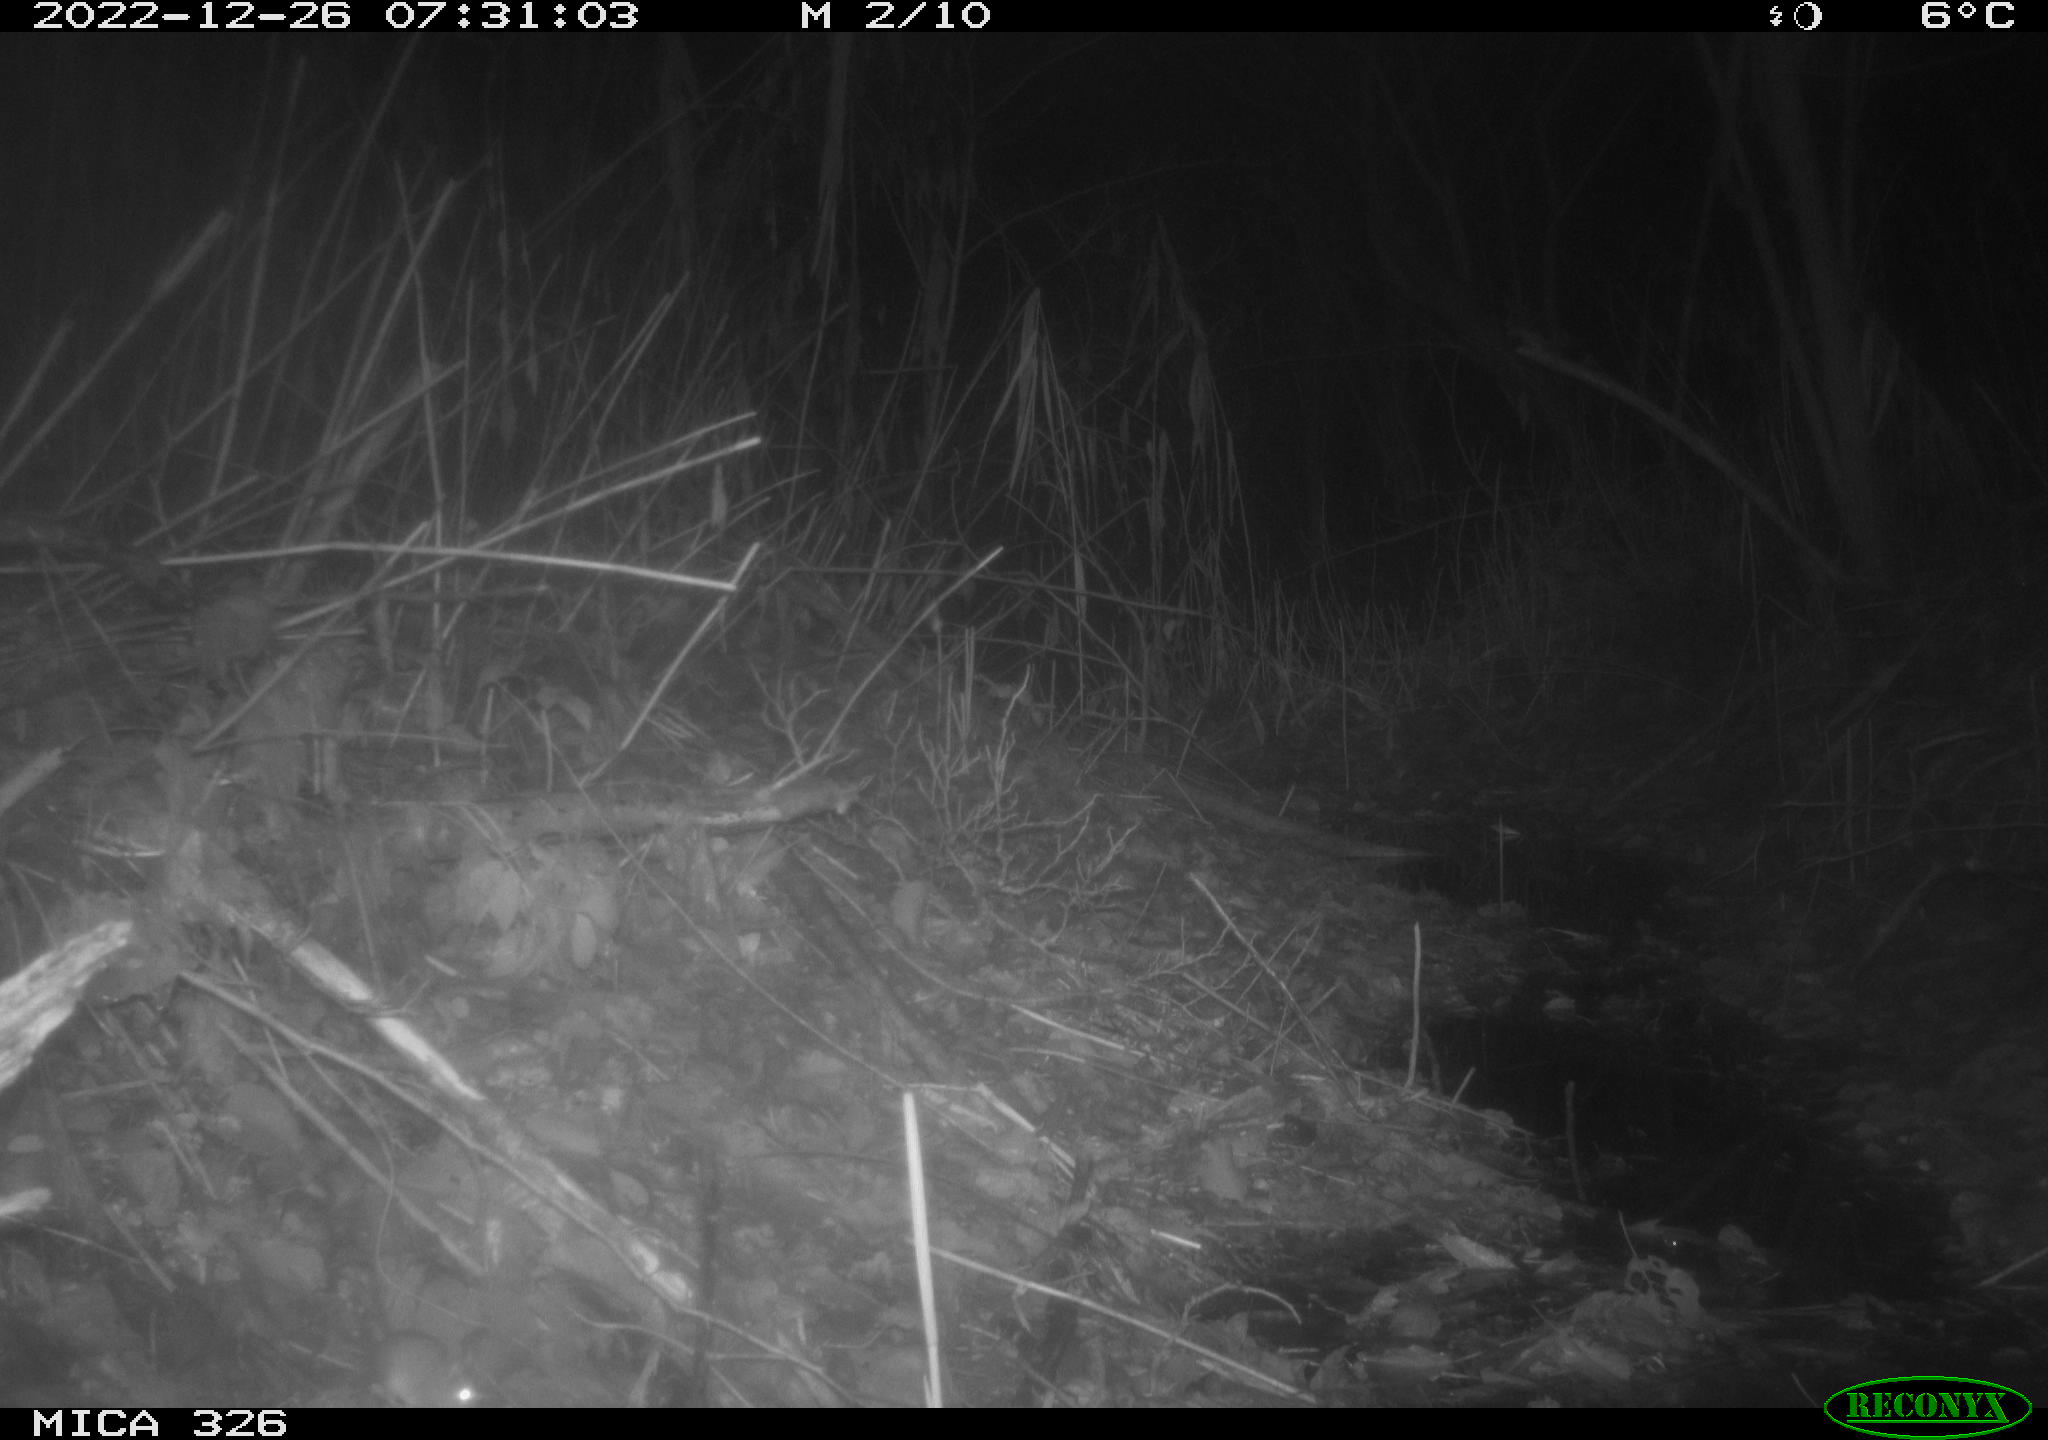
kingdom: Animalia
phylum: Chordata
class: Mammalia
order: Rodentia
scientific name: Rodentia
